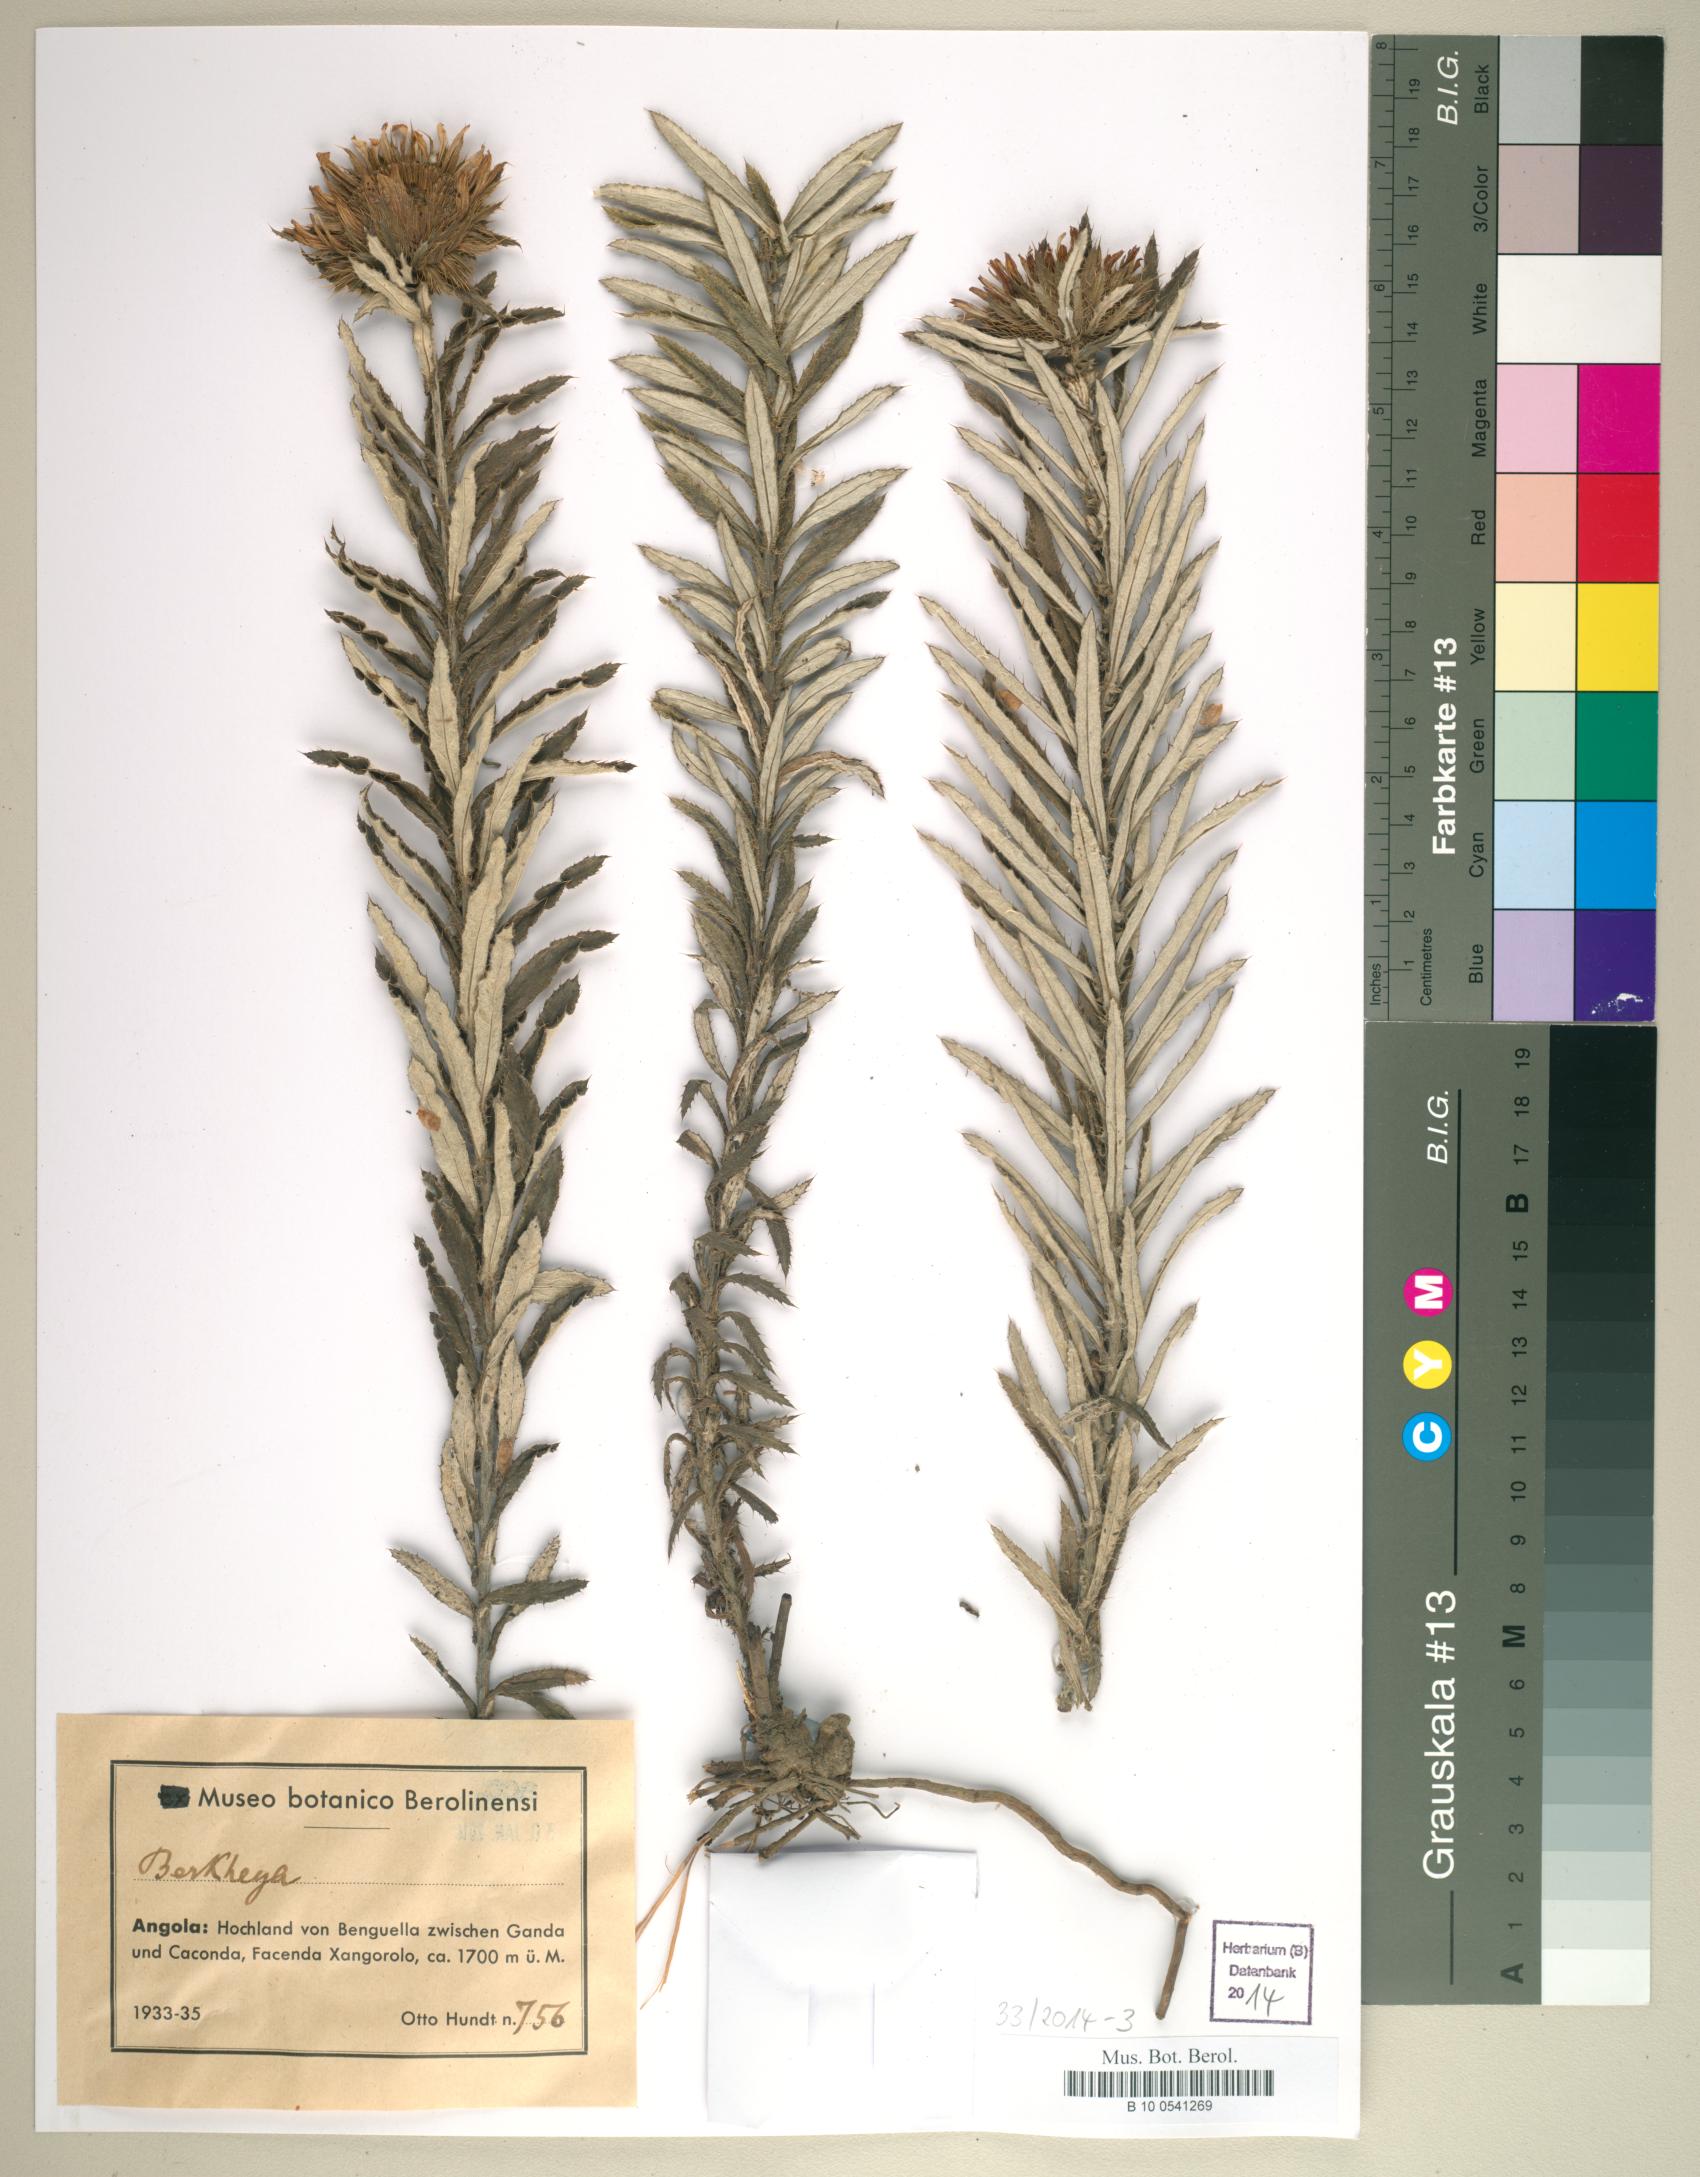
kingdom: Plantae
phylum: Tracheophyta
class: Magnoliopsida
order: Asterales
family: Asteraceae
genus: Berkheya
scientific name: Berkheya
